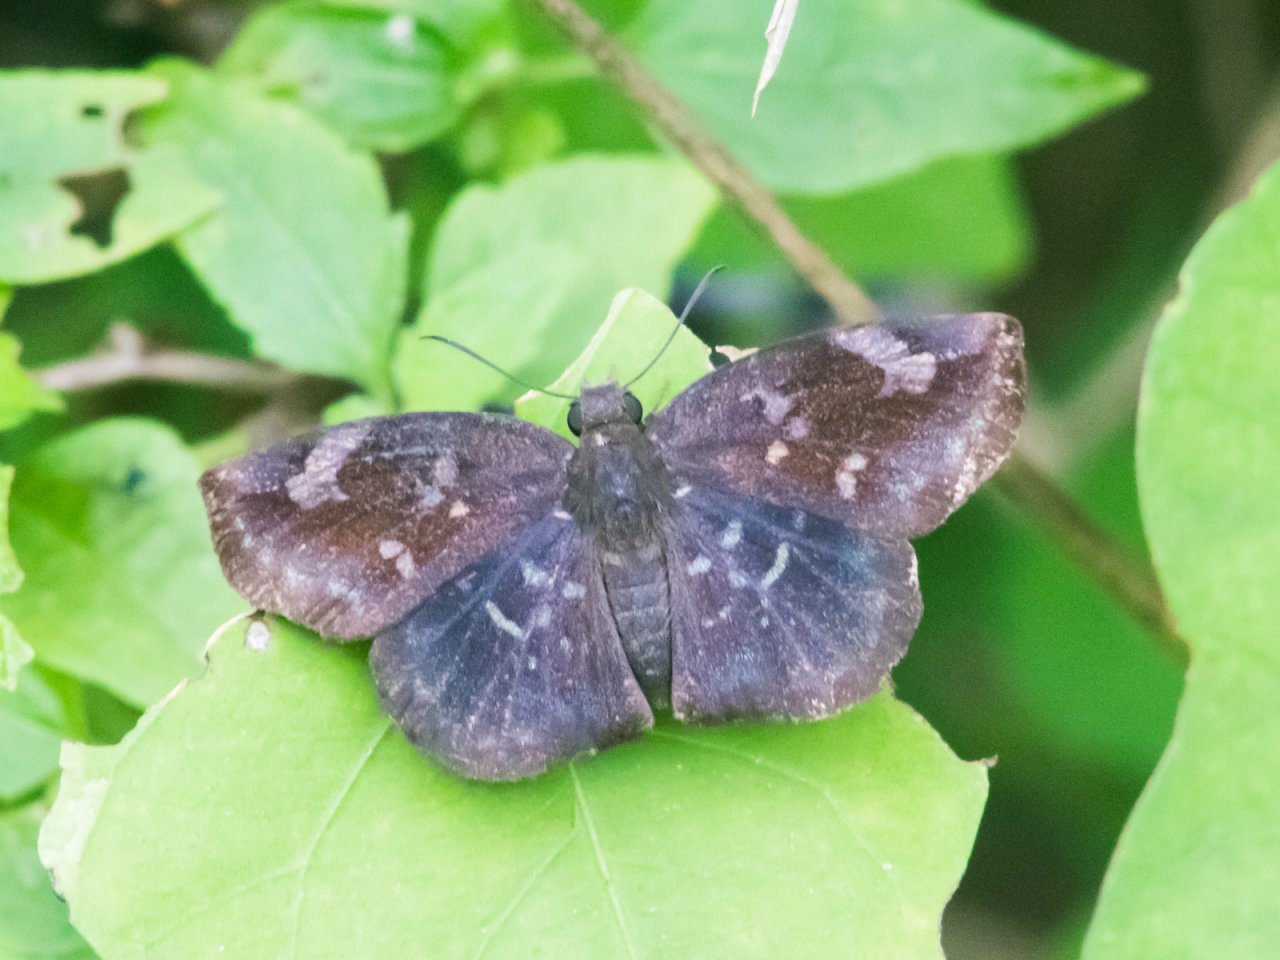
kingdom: Animalia
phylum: Arthropoda
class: Insecta
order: Lepidoptera
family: Hesperiidae
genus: Achlyodes
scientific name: Achlyodes thraso
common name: Sickle-winged Skipper
